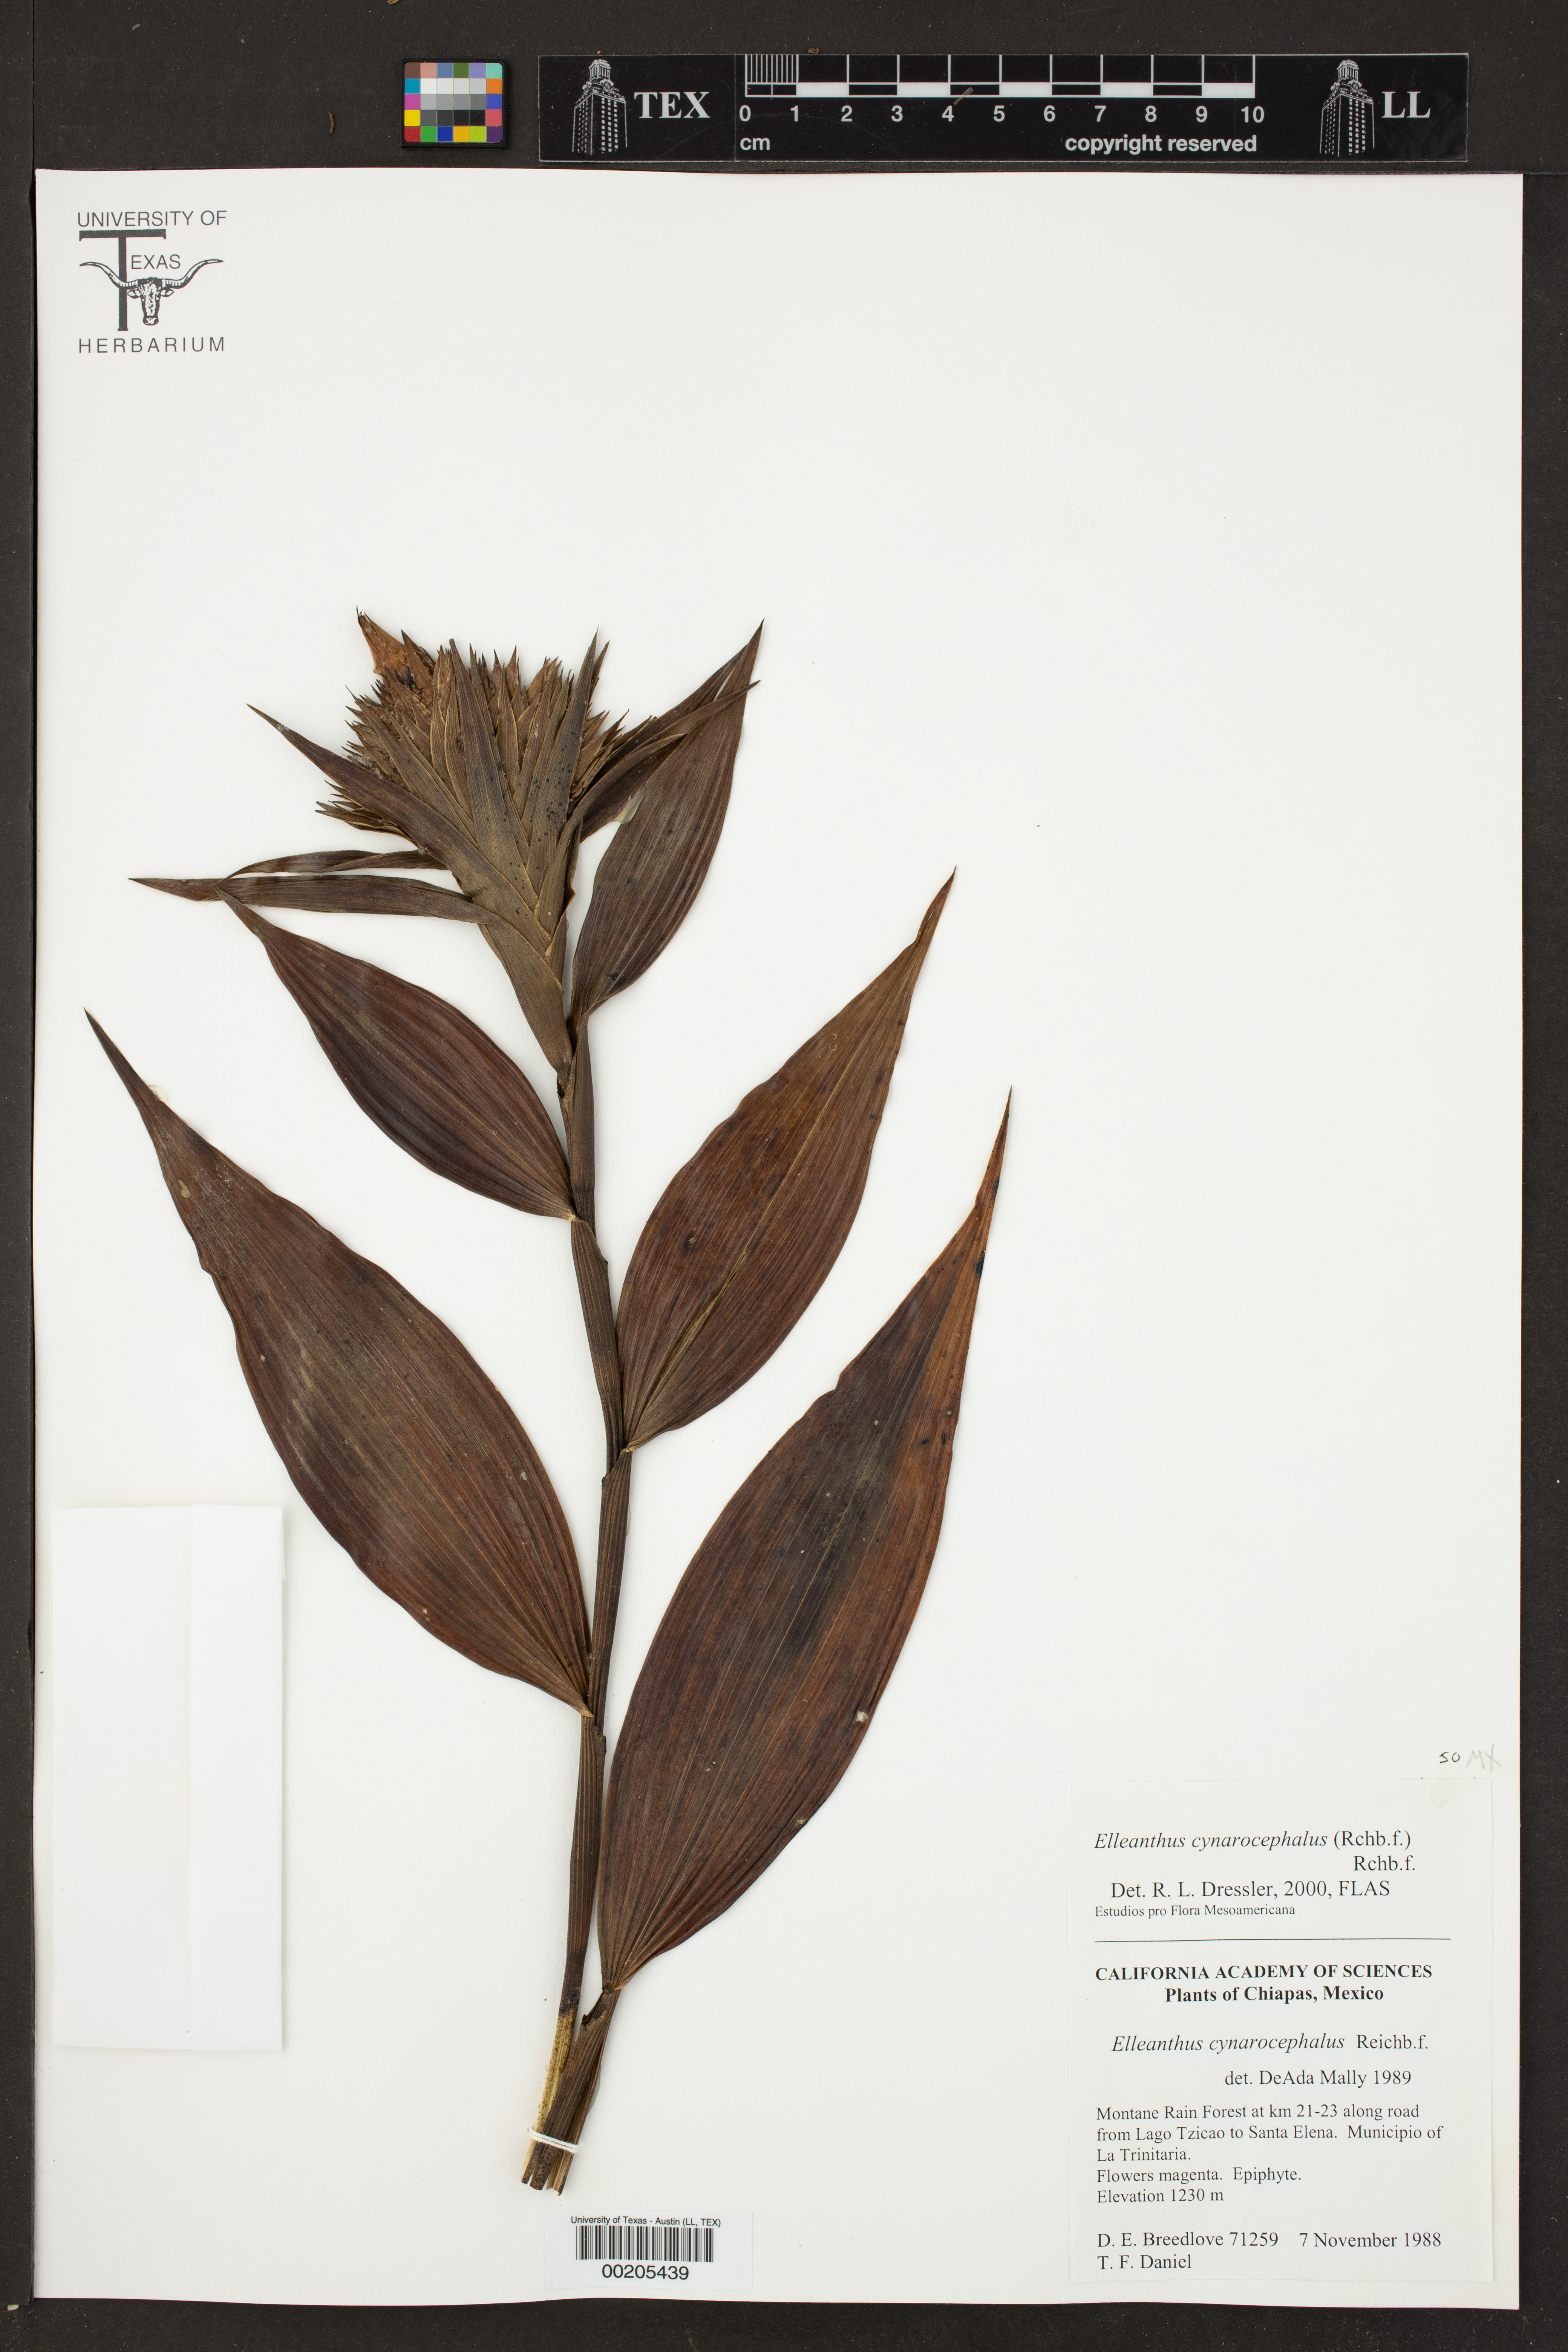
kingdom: Plantae
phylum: Tracheophyta
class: Liliopsida
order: Asparagales
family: Orchidaceae
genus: Elleanthus
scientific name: Elleanthus capitatus
